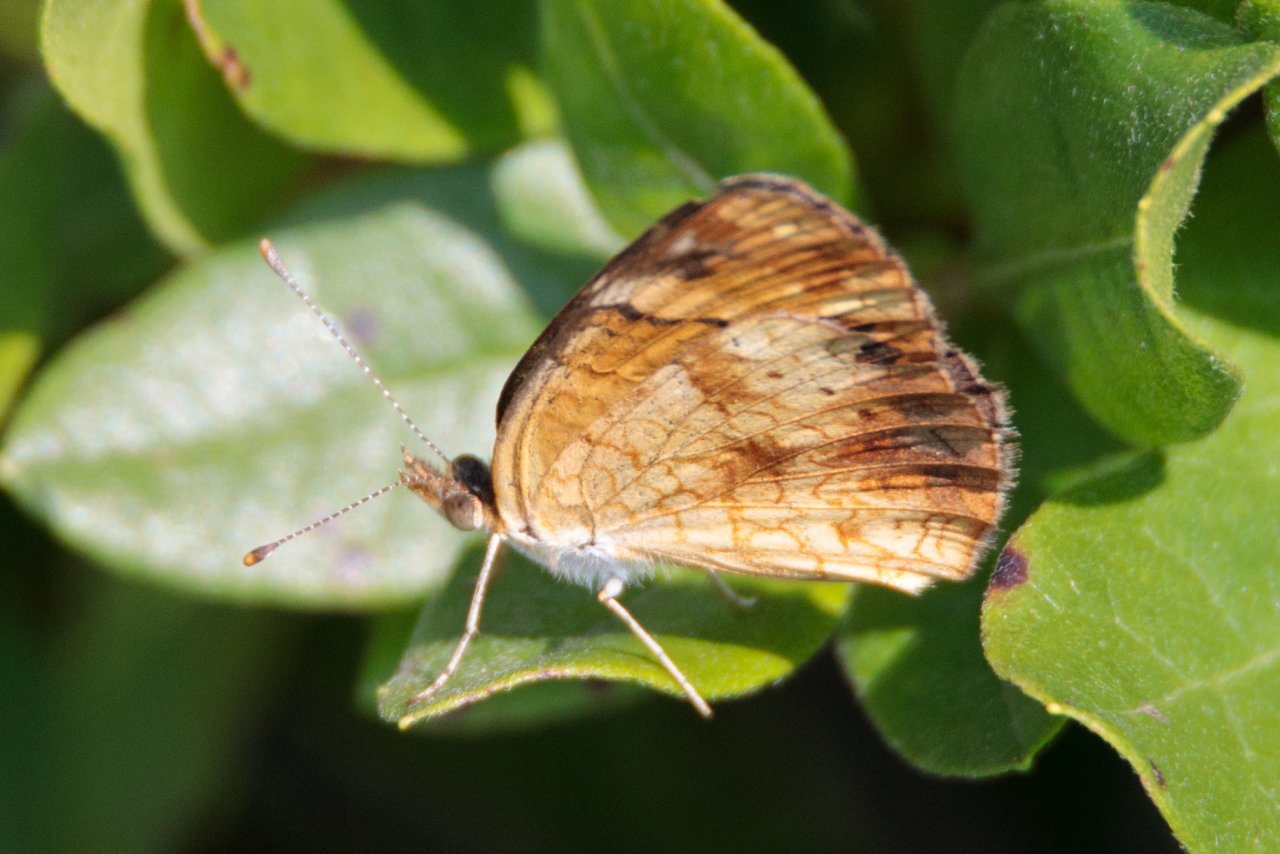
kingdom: Animalia
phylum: Arthropoda
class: Insecta
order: Lepidoptera
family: Nymphalidae
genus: Phyciodes
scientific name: Phyciodes tharos
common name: Northern Crescent
